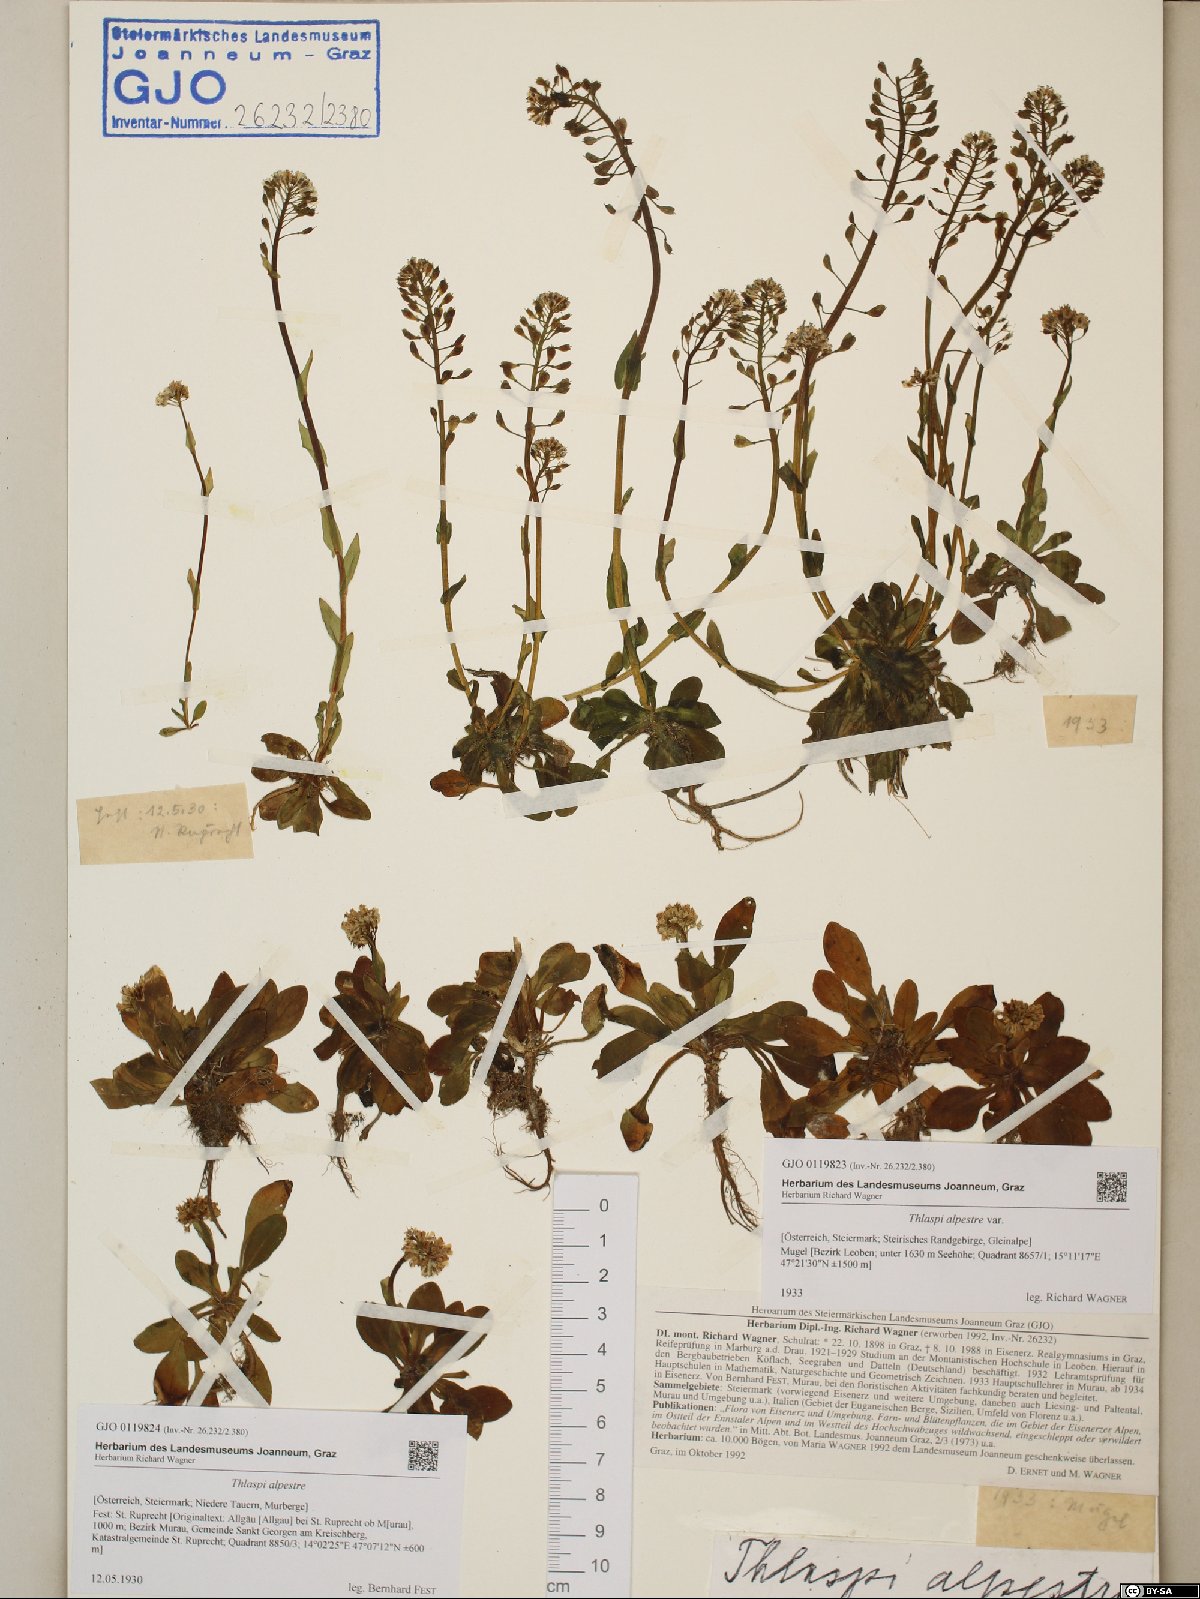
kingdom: Plantae
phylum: Tracheophyta
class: Magnoliopsida
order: Brassicales
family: Brassicaceae
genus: Noccaea
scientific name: Noccaea alpestris
